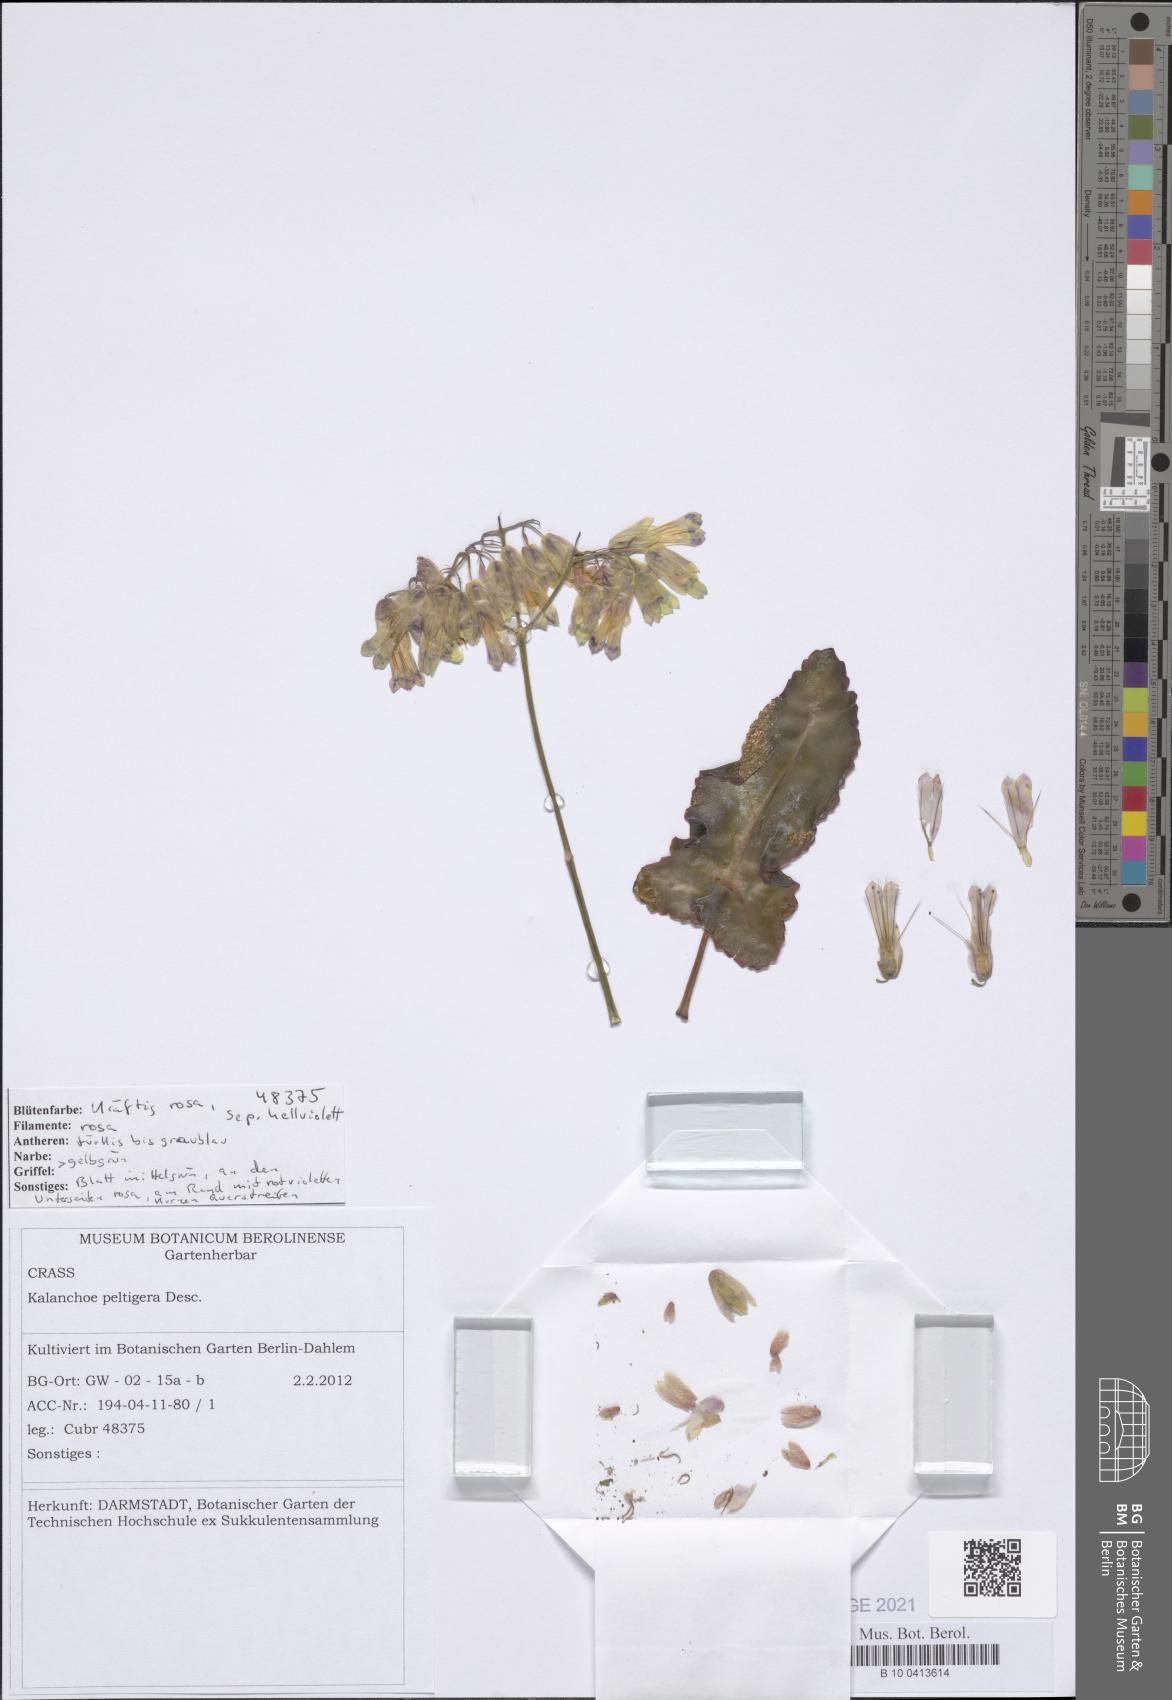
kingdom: Plantae
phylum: Tracheophyta
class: Magnoliopsida
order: Saxifragales
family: Crassulaceae
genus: Kalanchoe
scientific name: Kalanchoe peltigera
